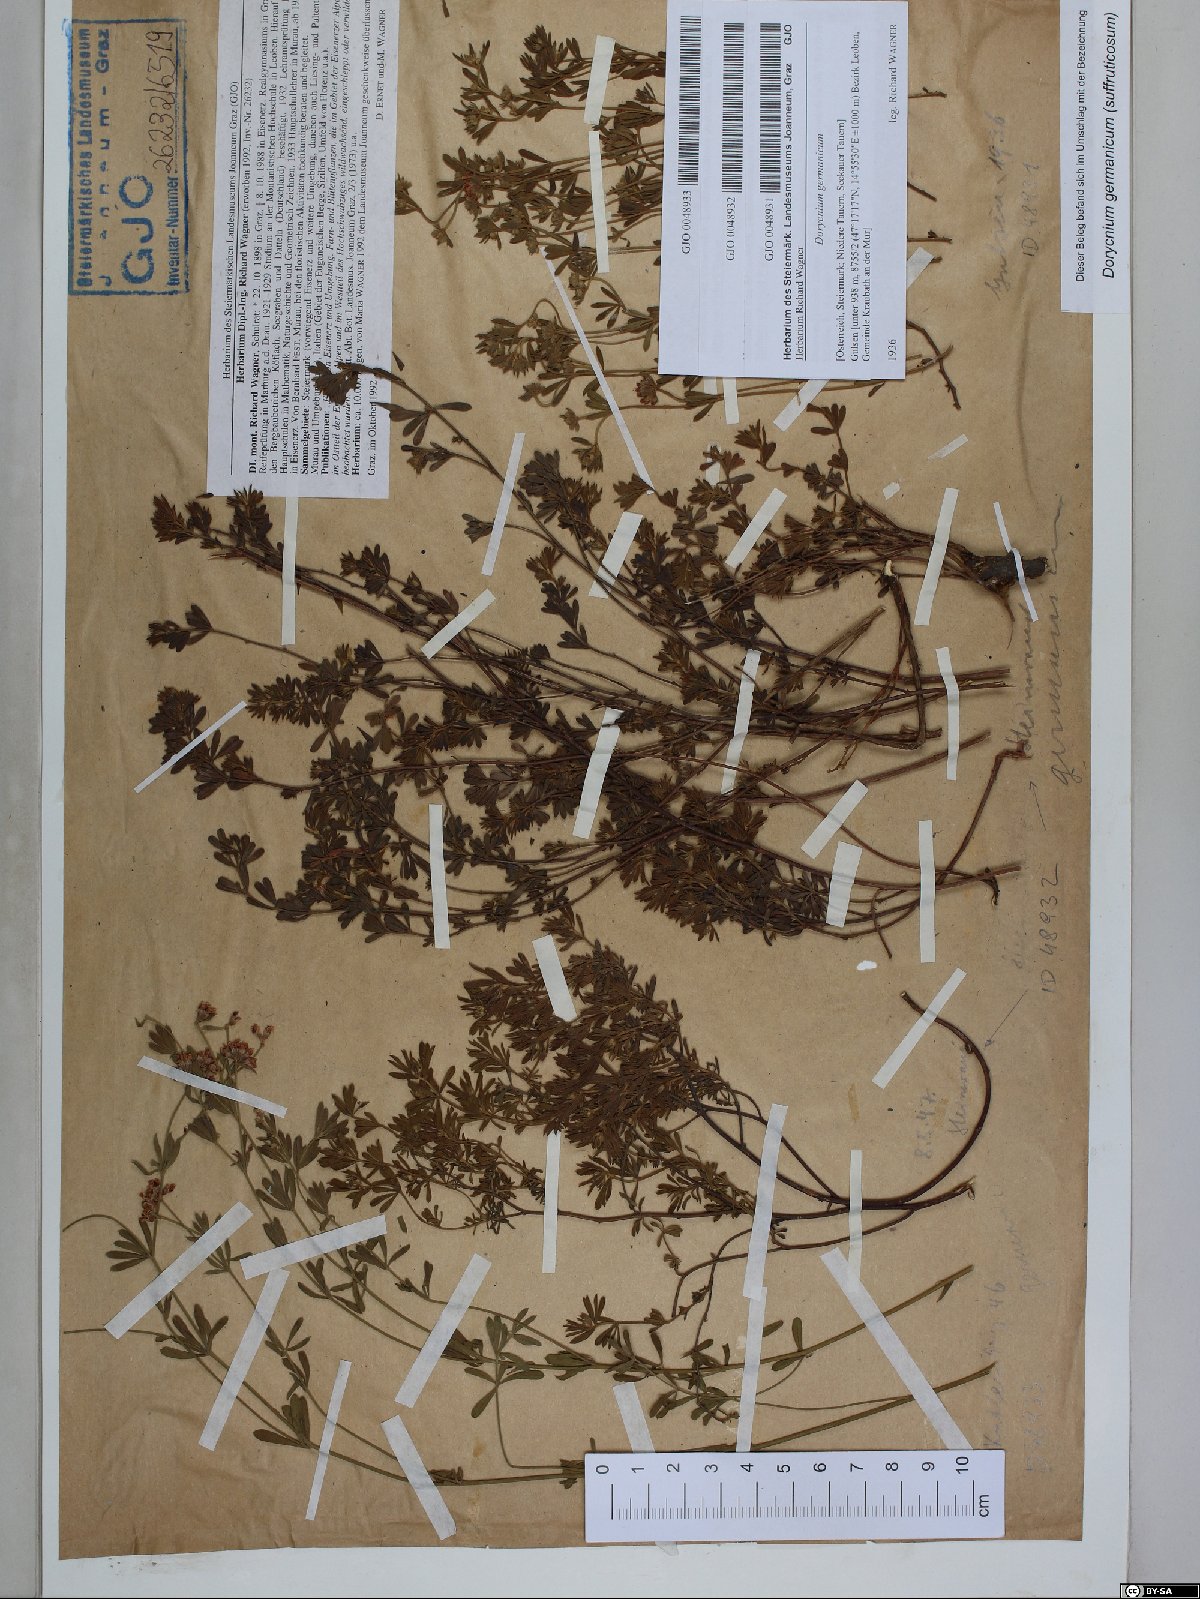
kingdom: Plantae
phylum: Tracheophyta
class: Magnoliopsida
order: Fabales
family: Fabaceae
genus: Lotus
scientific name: Lotus germanicus
